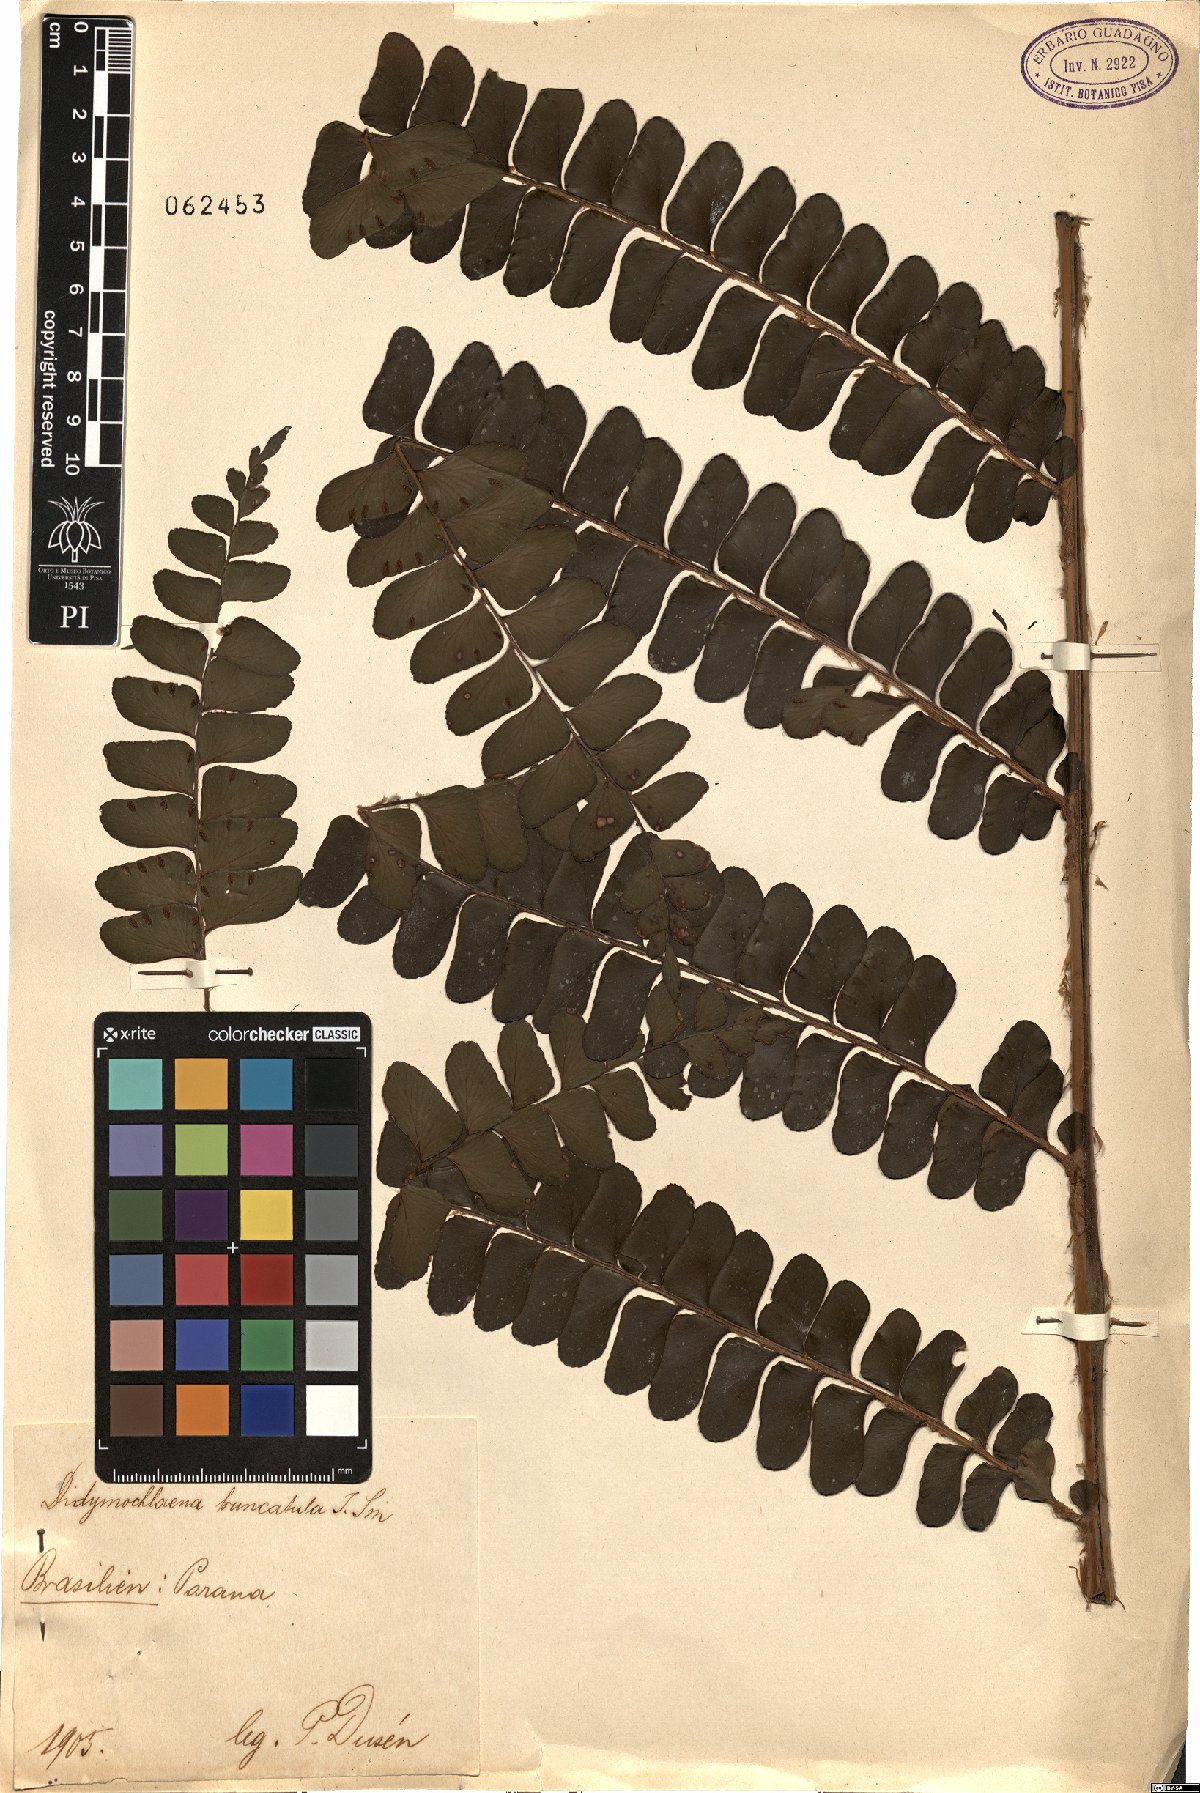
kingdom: Plantae
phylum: Tracheophyta
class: Polypodiopsida
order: Polypodiales
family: Didymochlaenaceae
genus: Didymochlaena
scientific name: Didymochlaena truncatula
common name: Mahogany fern
